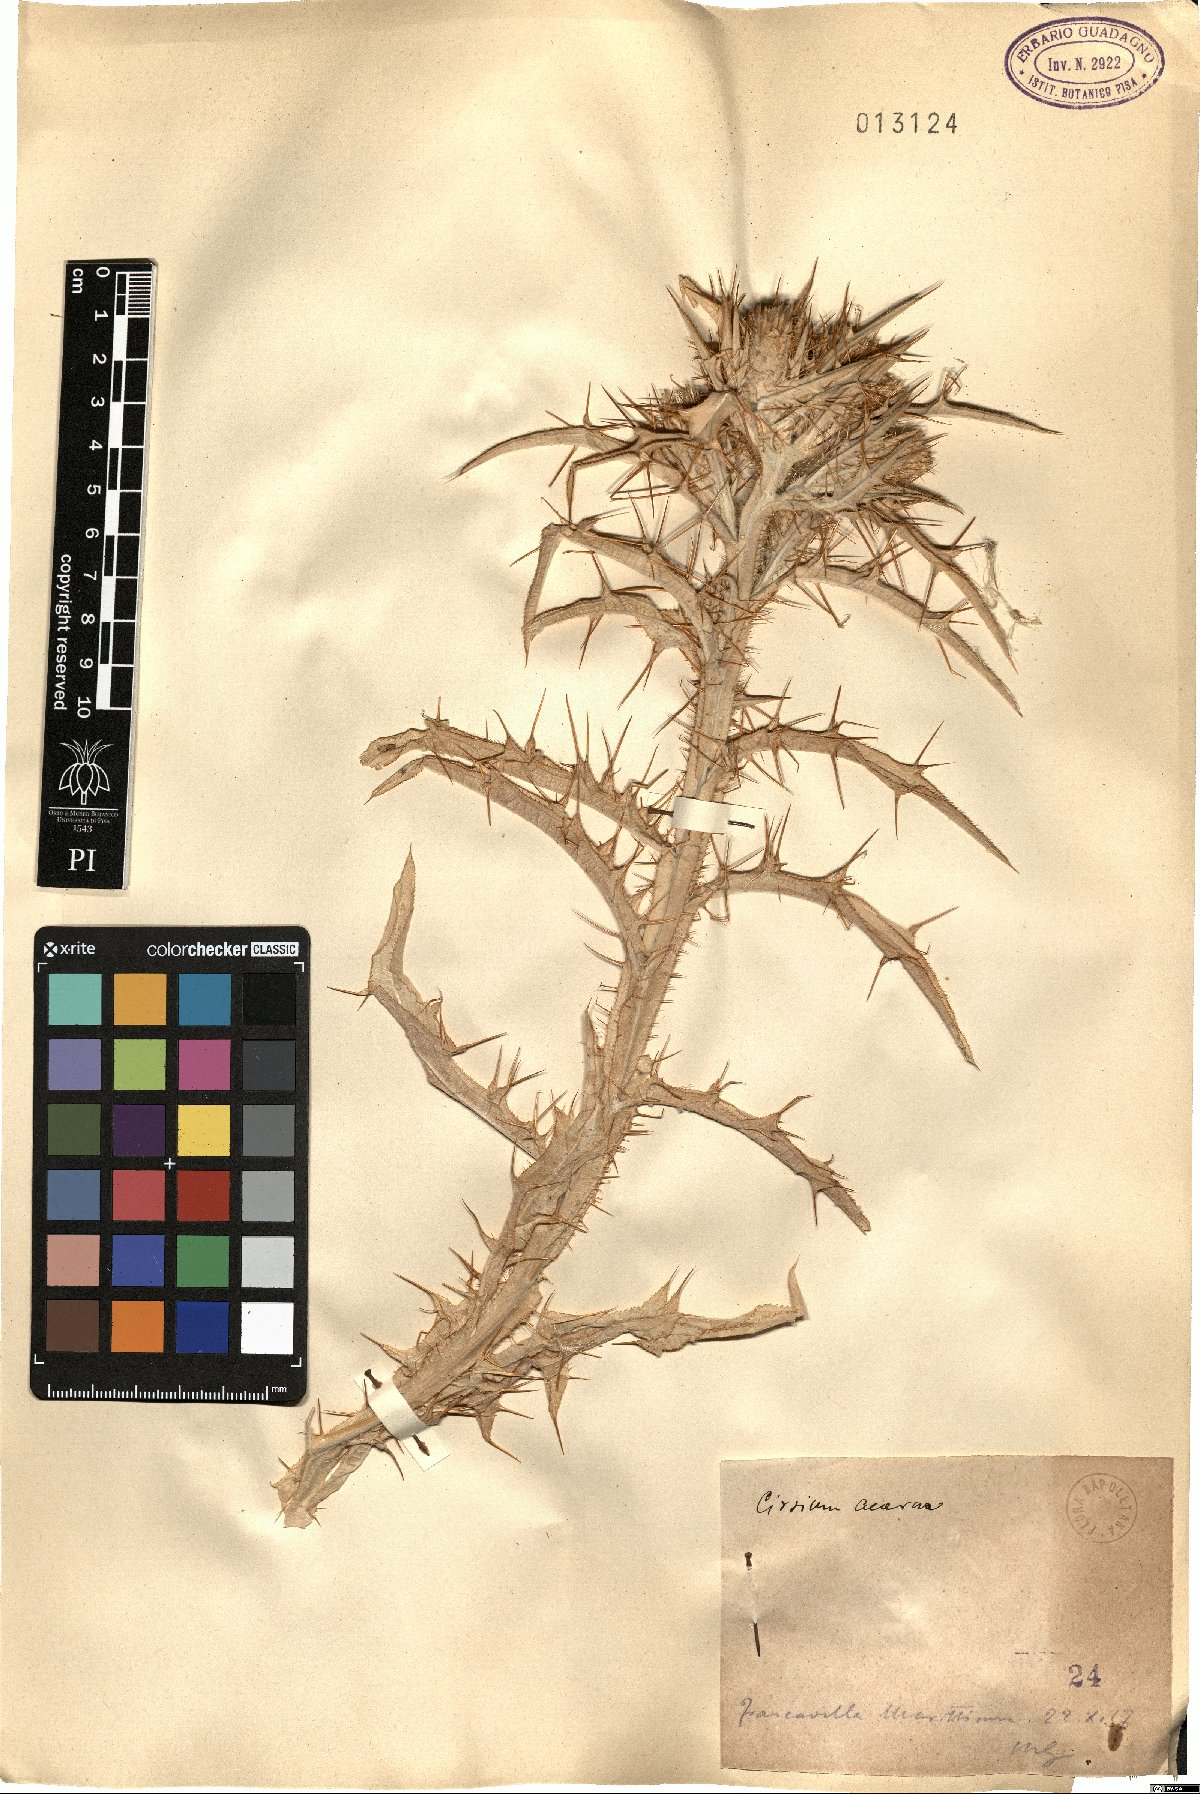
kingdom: Plantae
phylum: Tracheophyta
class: Magnoliopsida
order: Asterales
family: Asteraceae
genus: Picnomon
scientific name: Picnomon acarna
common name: Soldier thistle
